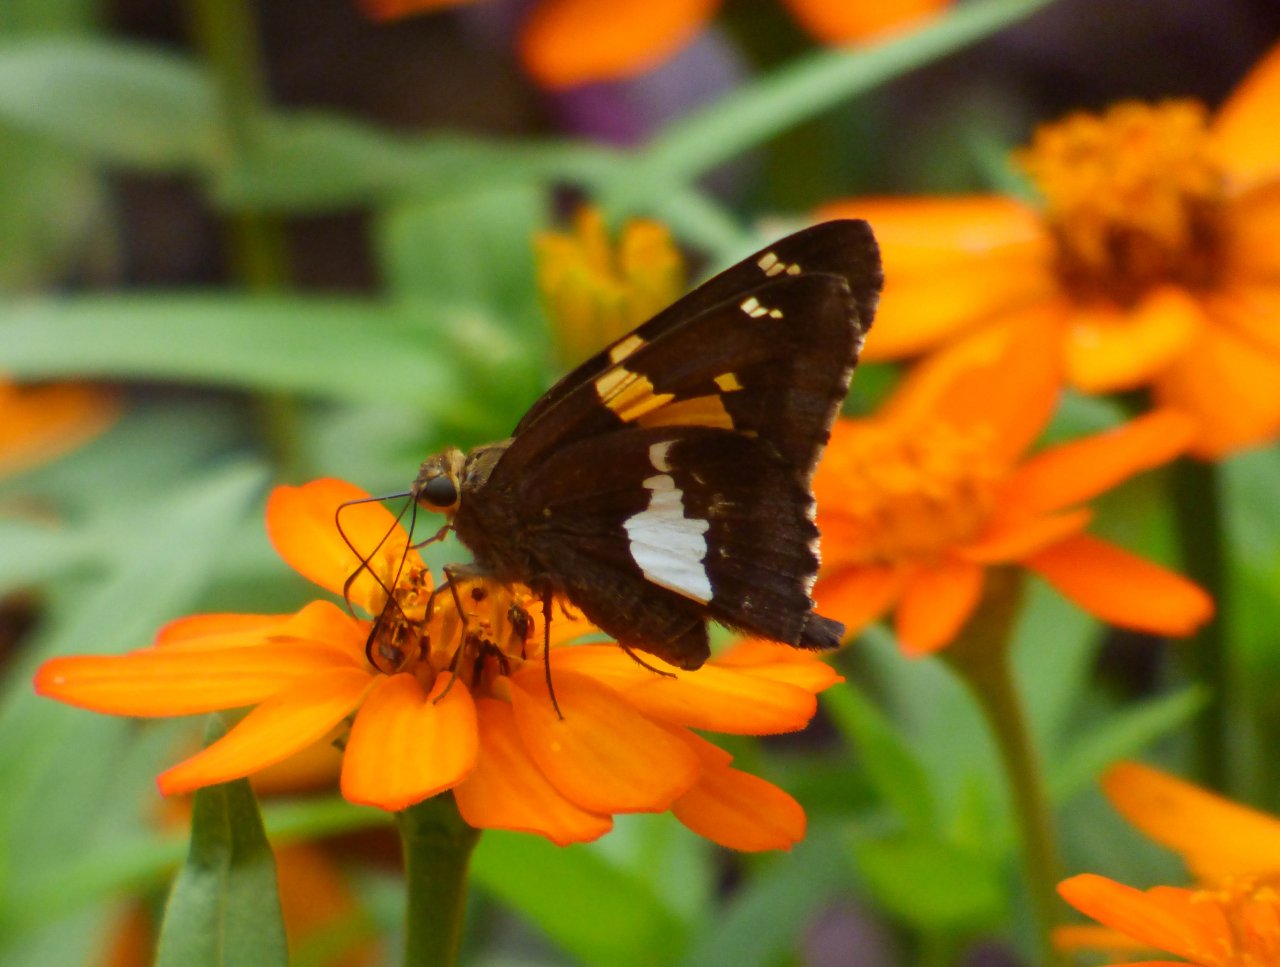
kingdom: Animalia
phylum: Arthropoda
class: Insecta
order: Lepidoptera
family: Hesperiidae
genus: Epargyreus
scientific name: Epargyreus clarus
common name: Silver-spotted Skipper
